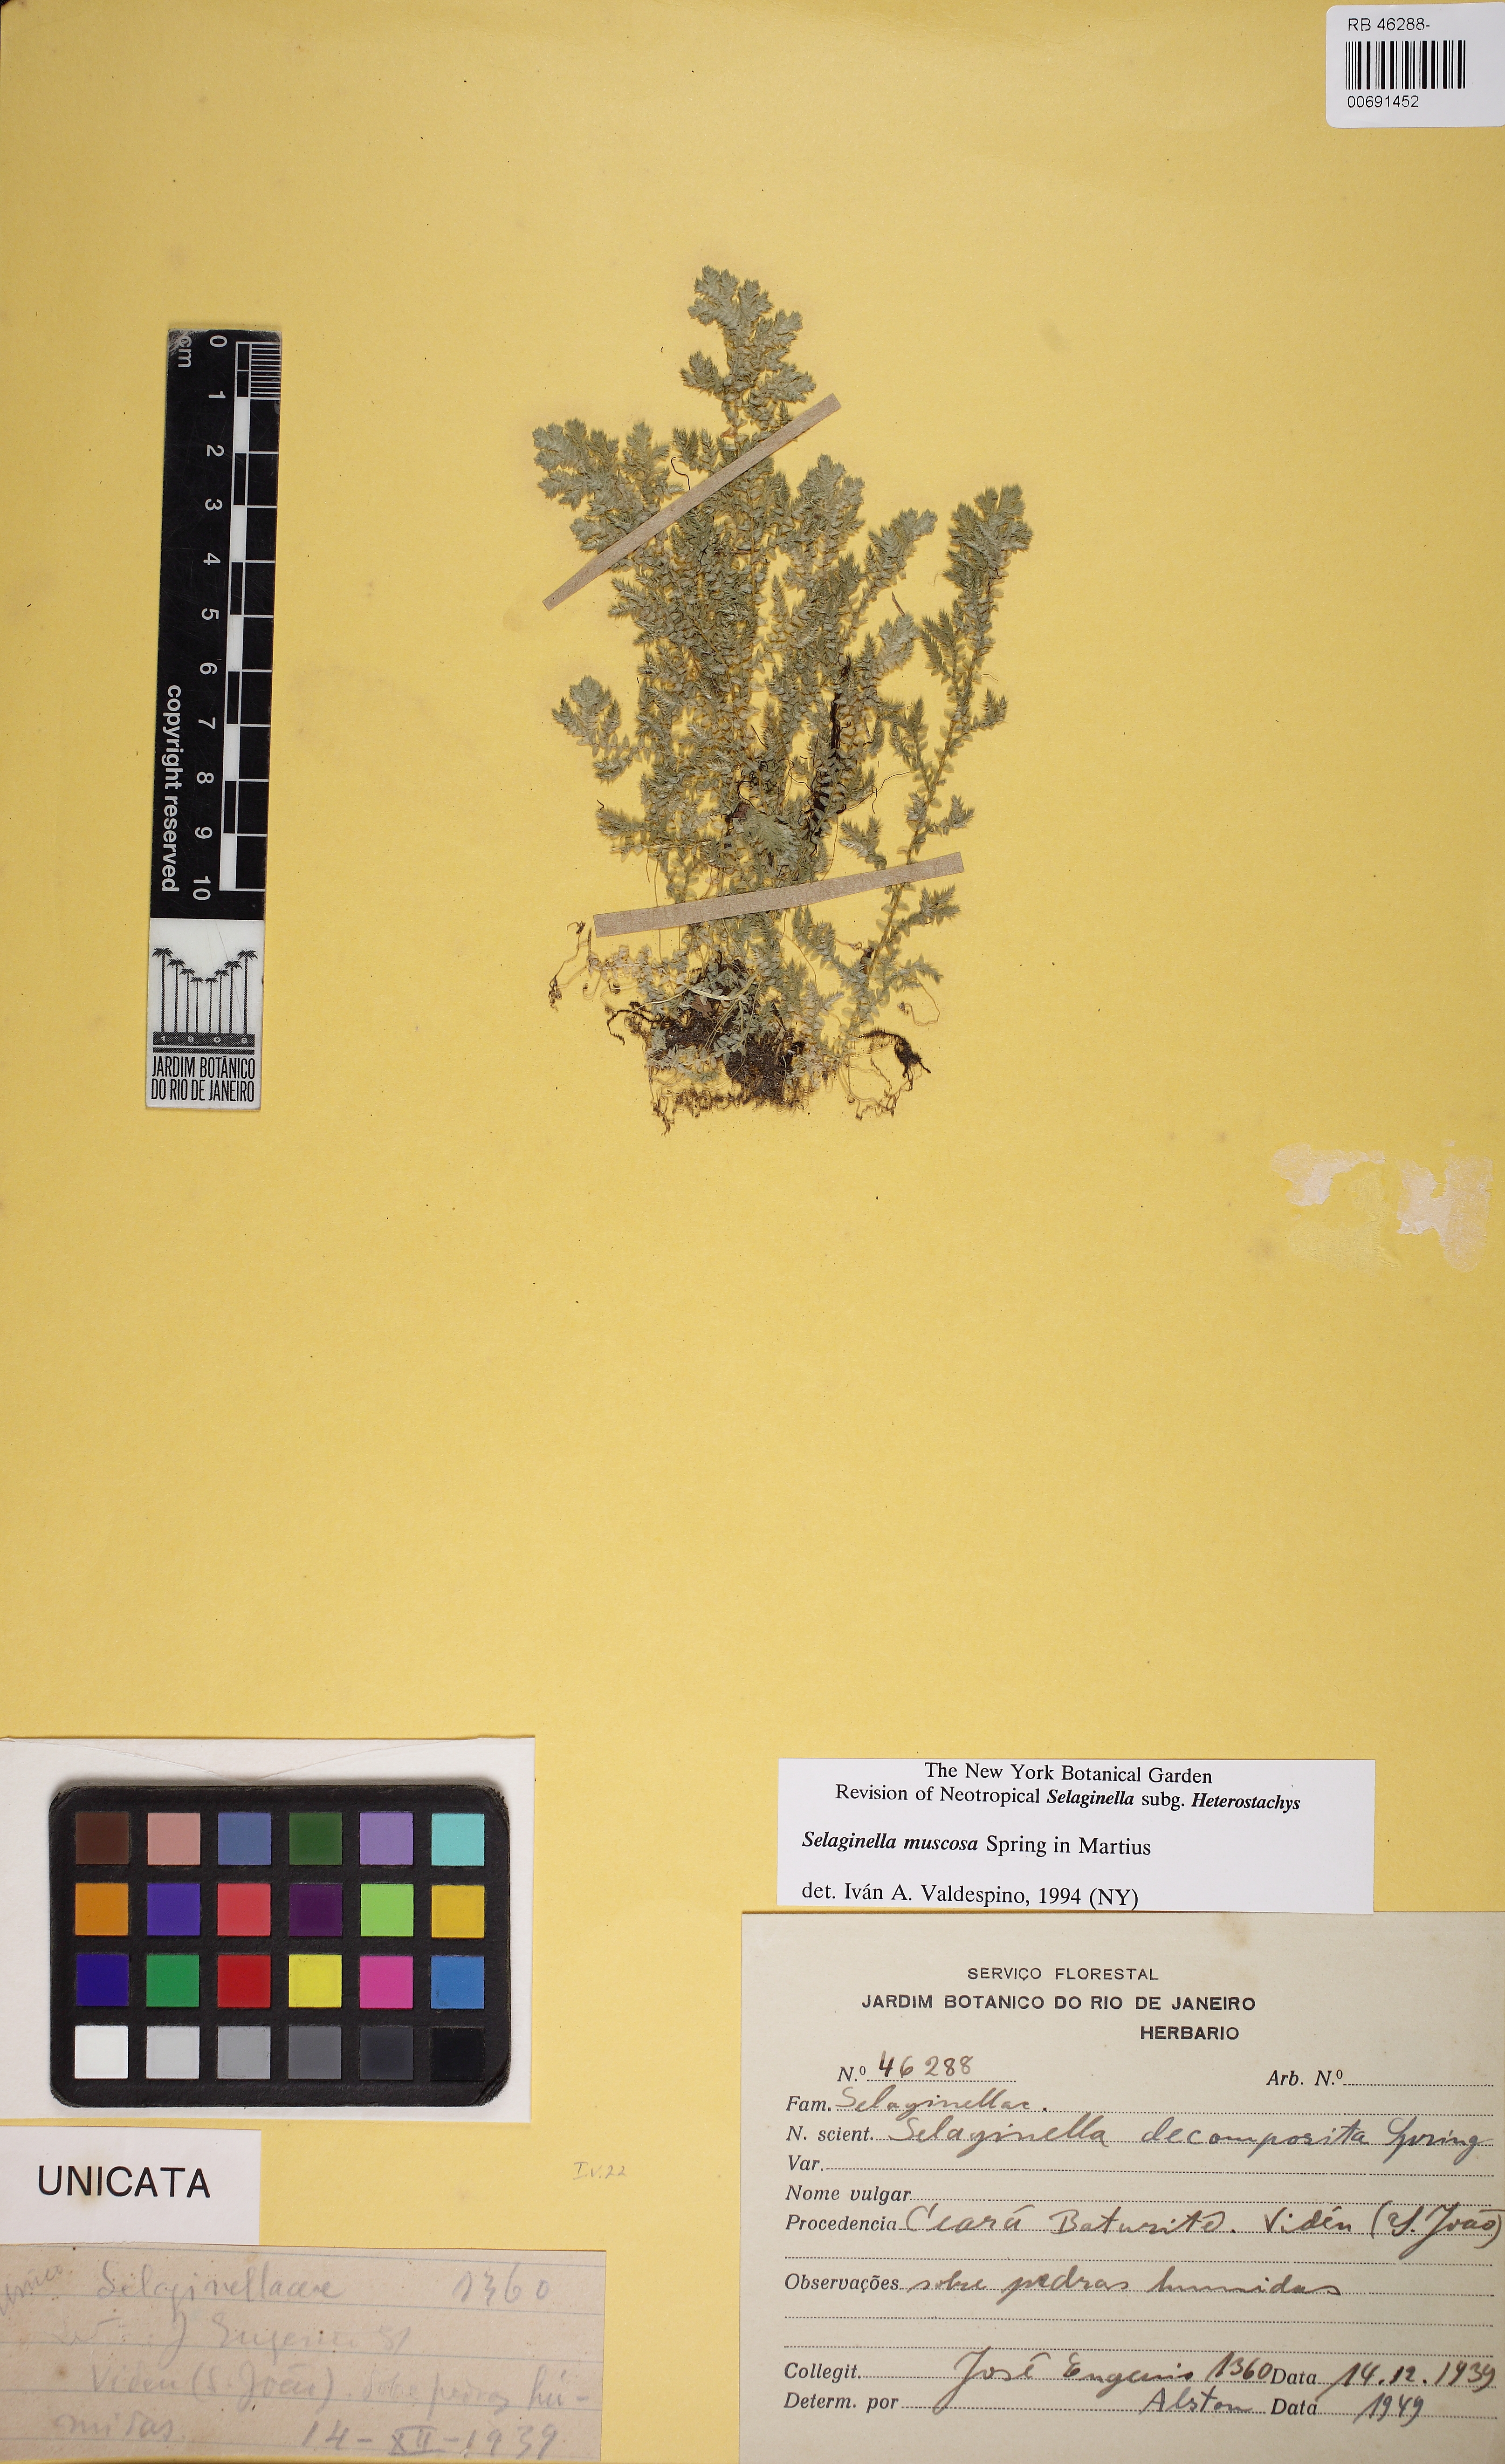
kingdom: Plantae
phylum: Tracheophyta
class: Lycopodiopsida
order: Selaginellales
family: Selaginellaceae
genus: Selaginella
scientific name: Selaginella muscosa
